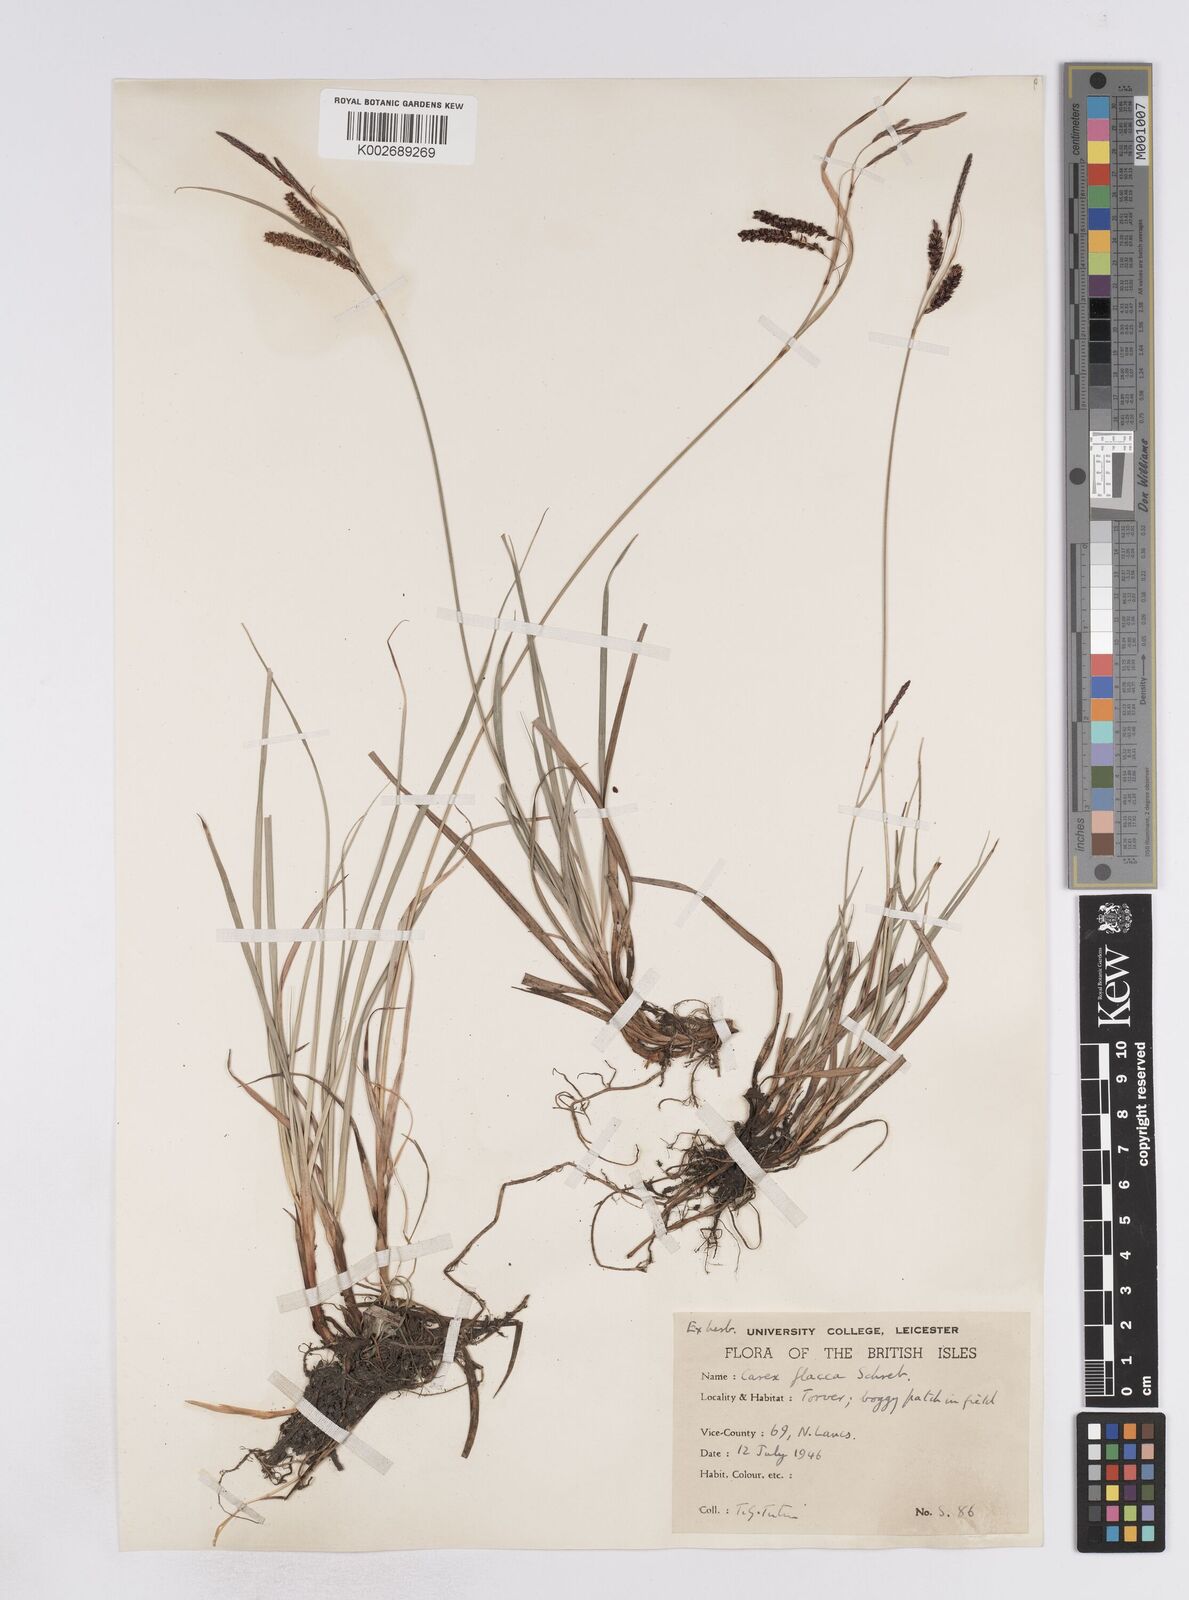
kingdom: Plantae
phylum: Tracheophyta
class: Liliopsida
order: Poales
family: Cyperaceae
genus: Carex
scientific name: Carex flacca
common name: Glaucous sedge
